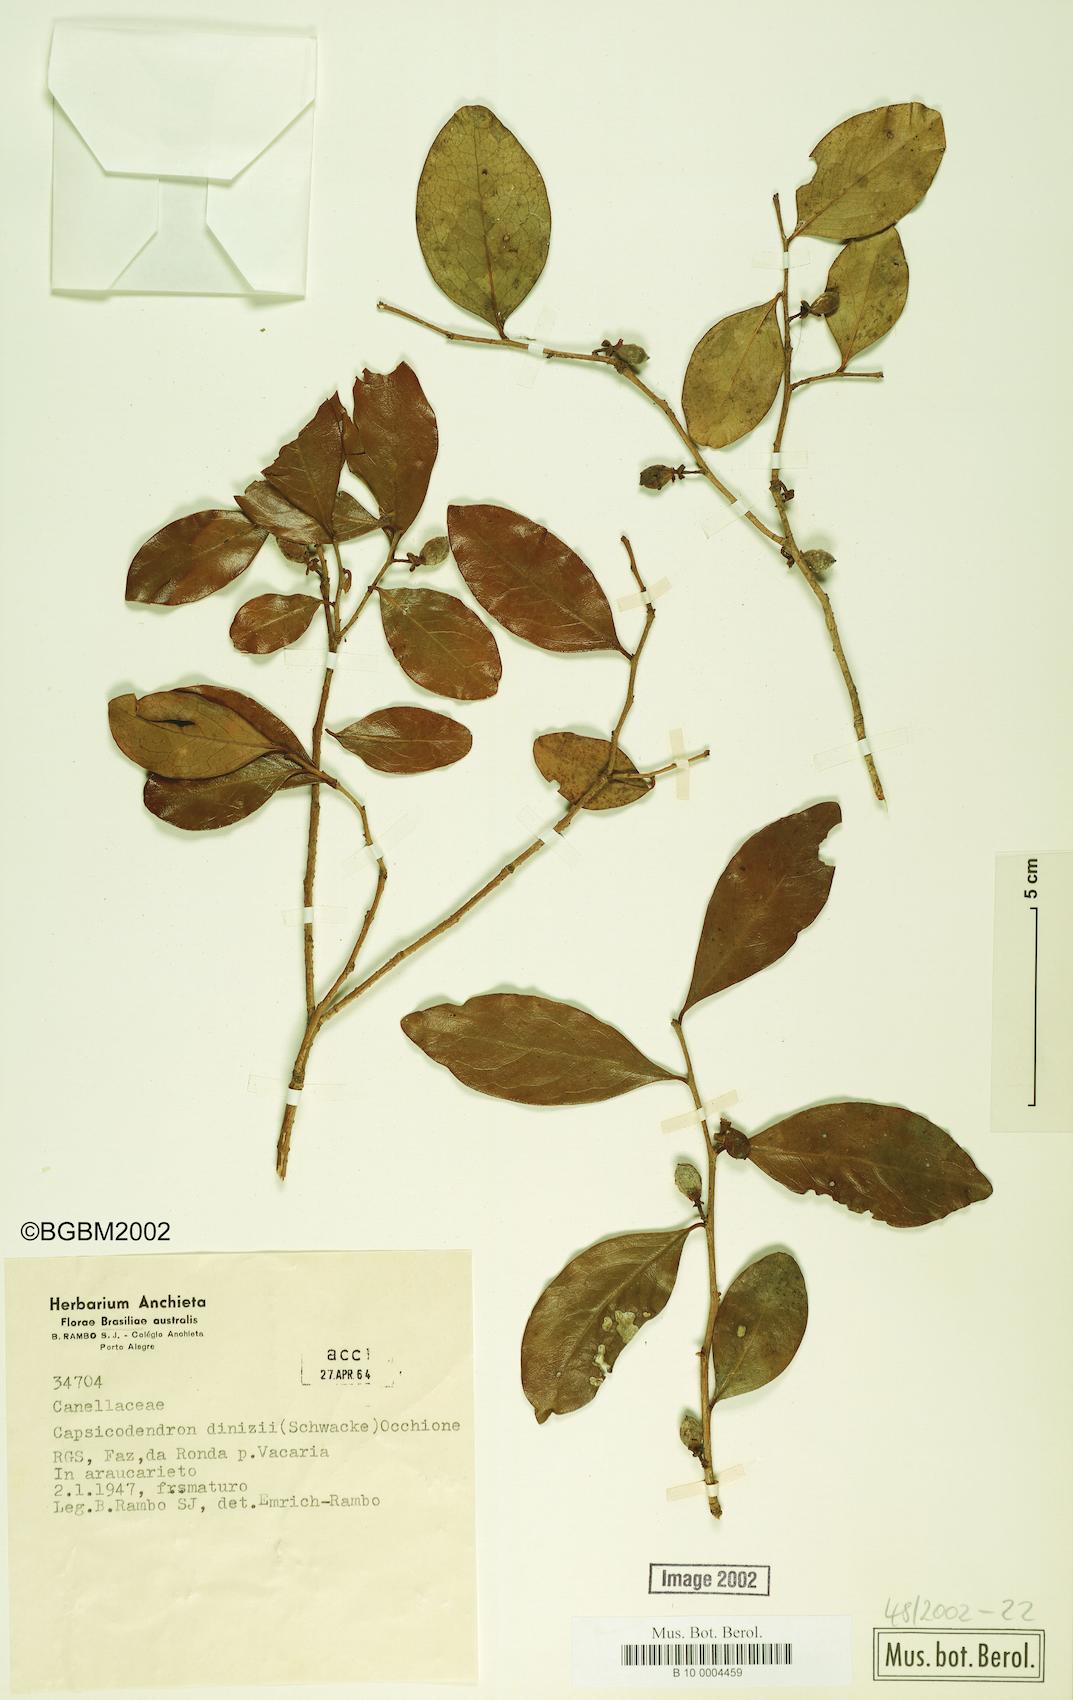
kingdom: Plantae
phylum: Tracheophyta
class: Magnoliopsida
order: Canellales
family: Canellaceae
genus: Cinnamodendron
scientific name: Cinnamodendron dinisii
